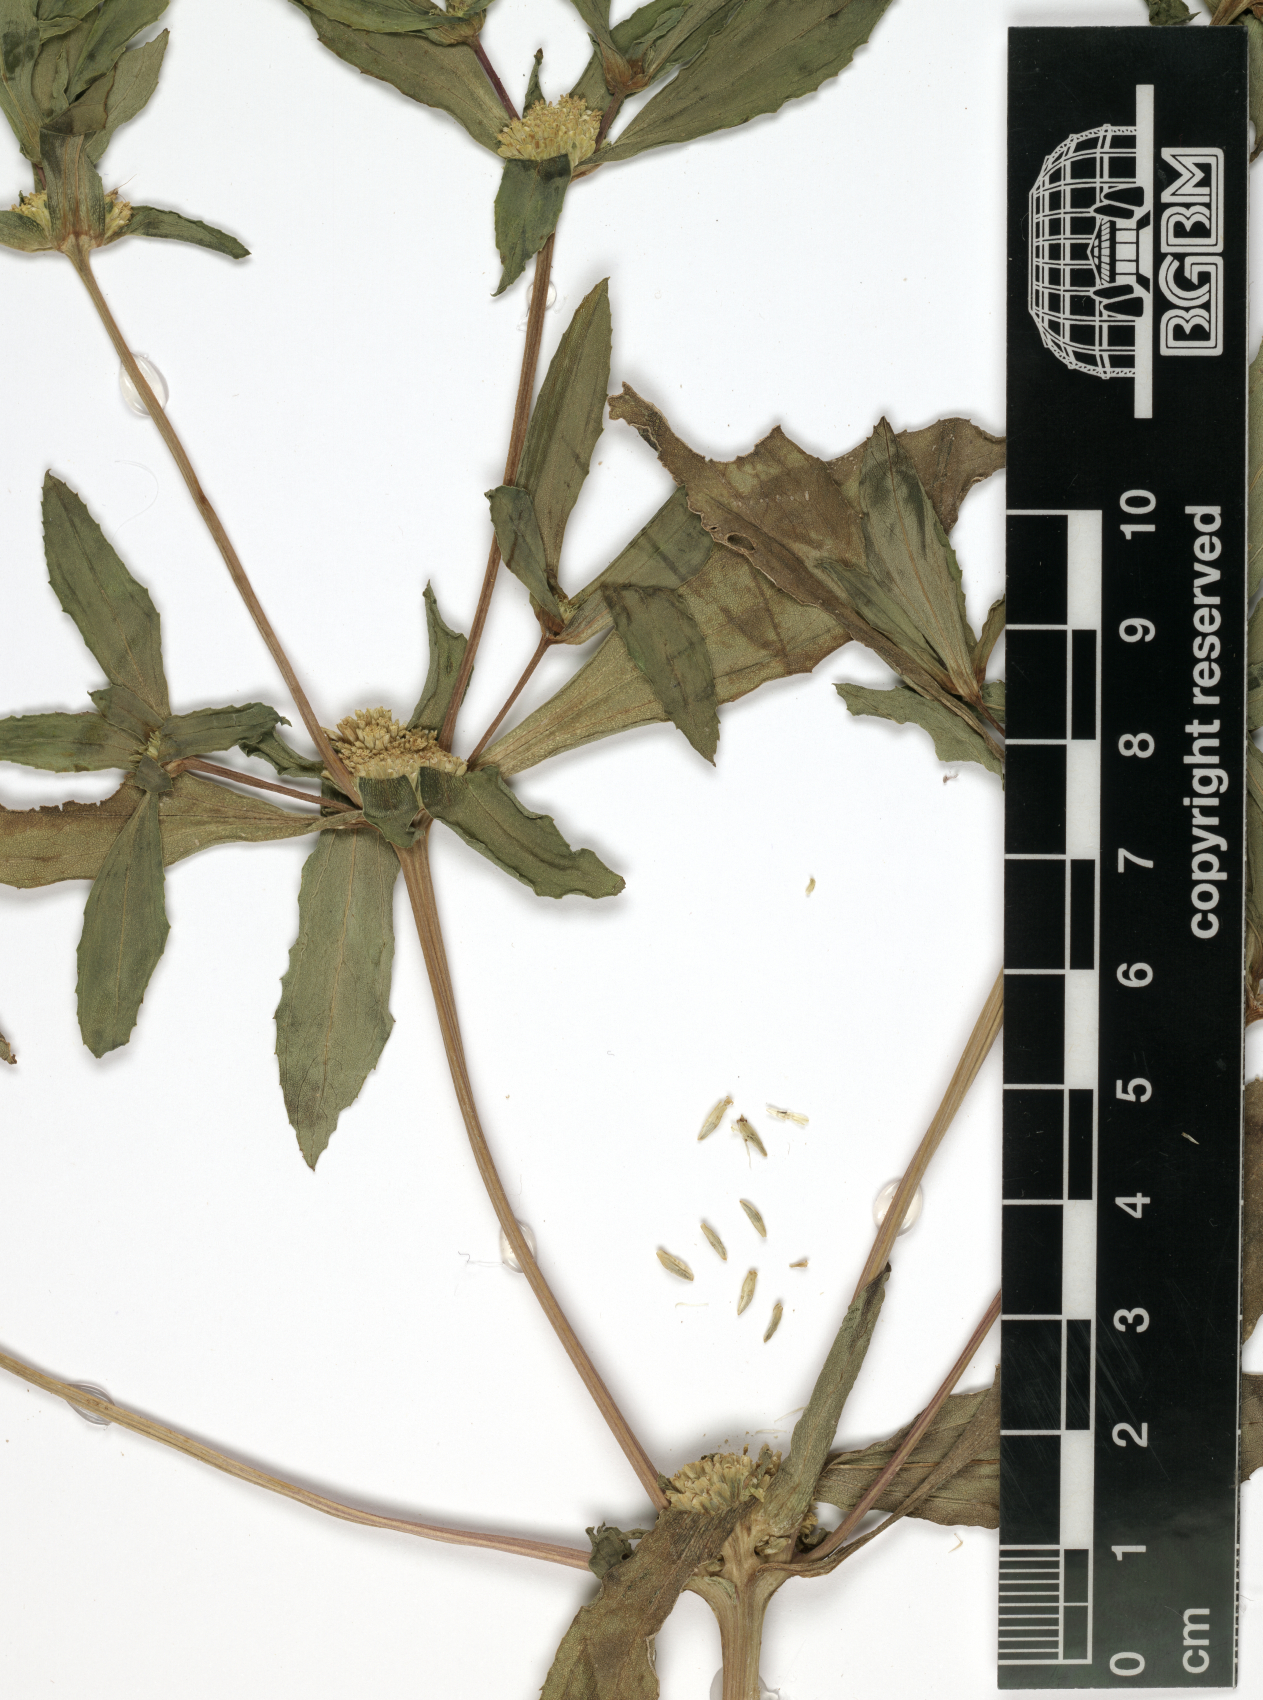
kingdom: Plantae
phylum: Tracheophyta
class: Magnoliopsida
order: Asterales
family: Asteraceae
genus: Flaveria
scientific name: Flaveria trinervia
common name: Clustered yellowtops
